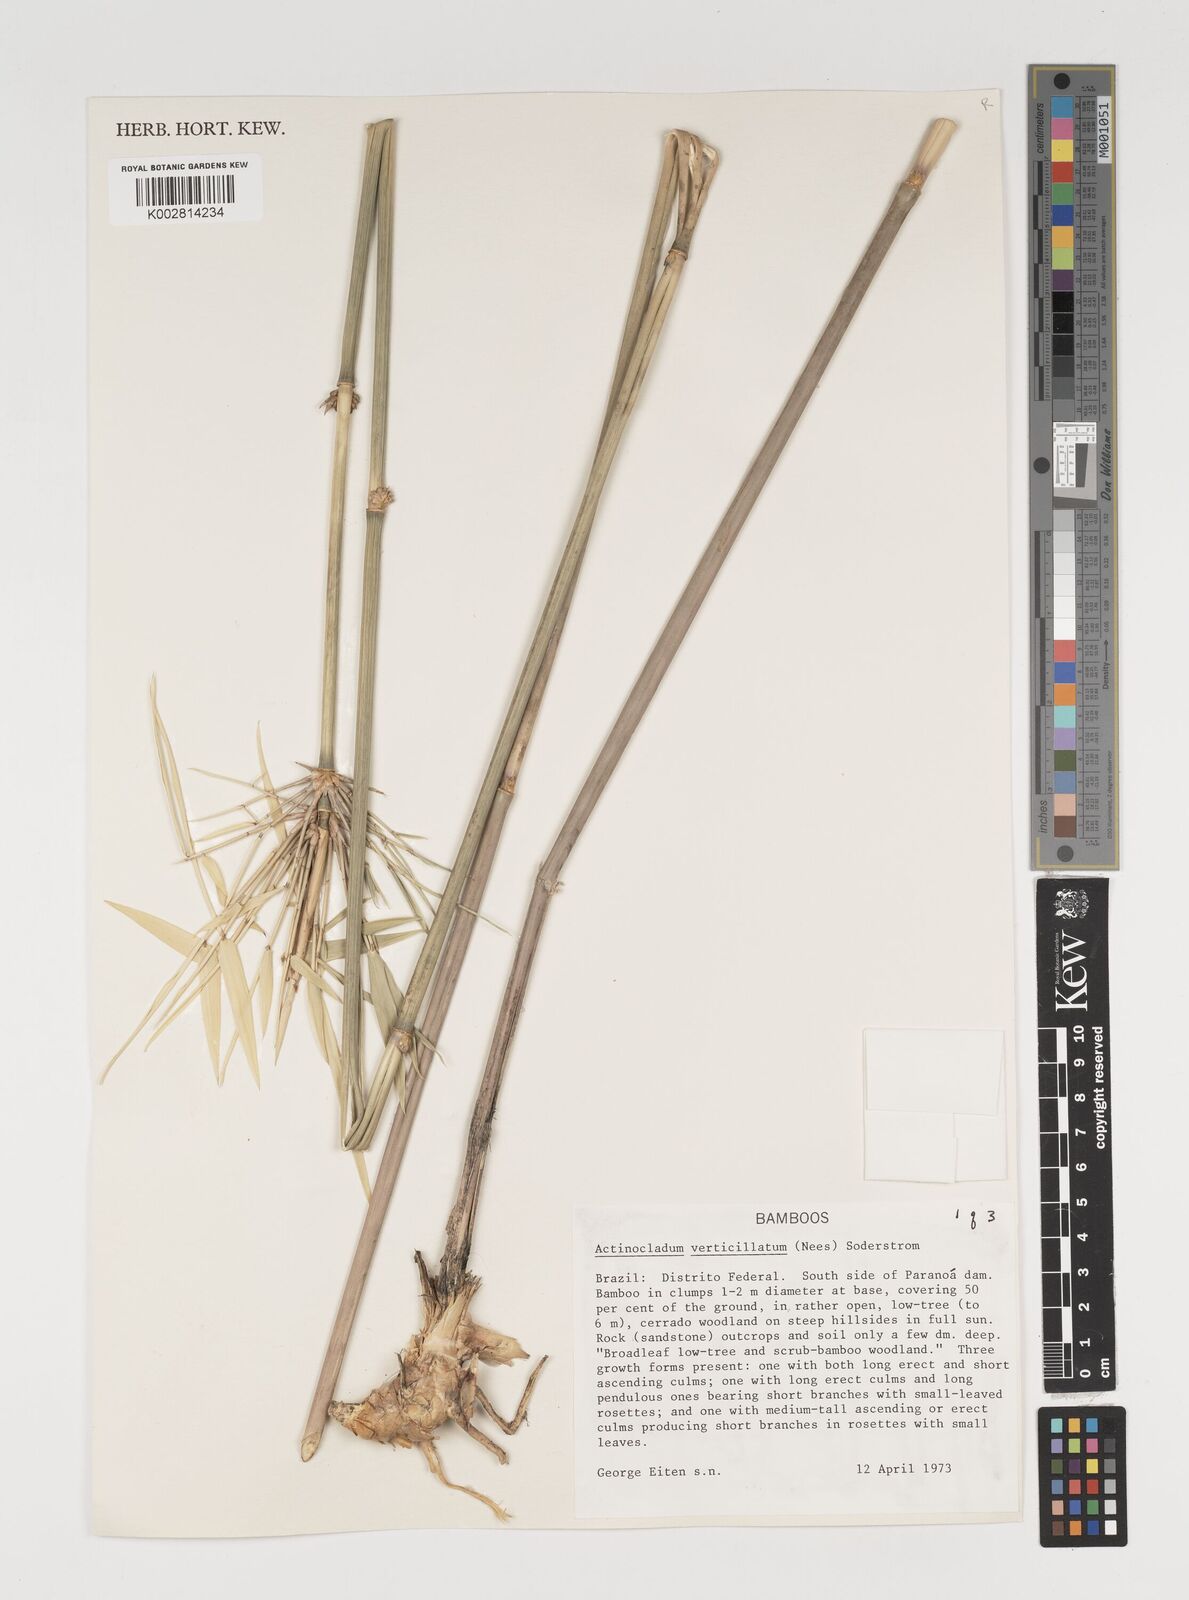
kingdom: Plantae
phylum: Tracheophyta
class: Liliopsida
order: Poales
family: Poaceae
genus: Actinocladum
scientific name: Actinocladum verticillatum
